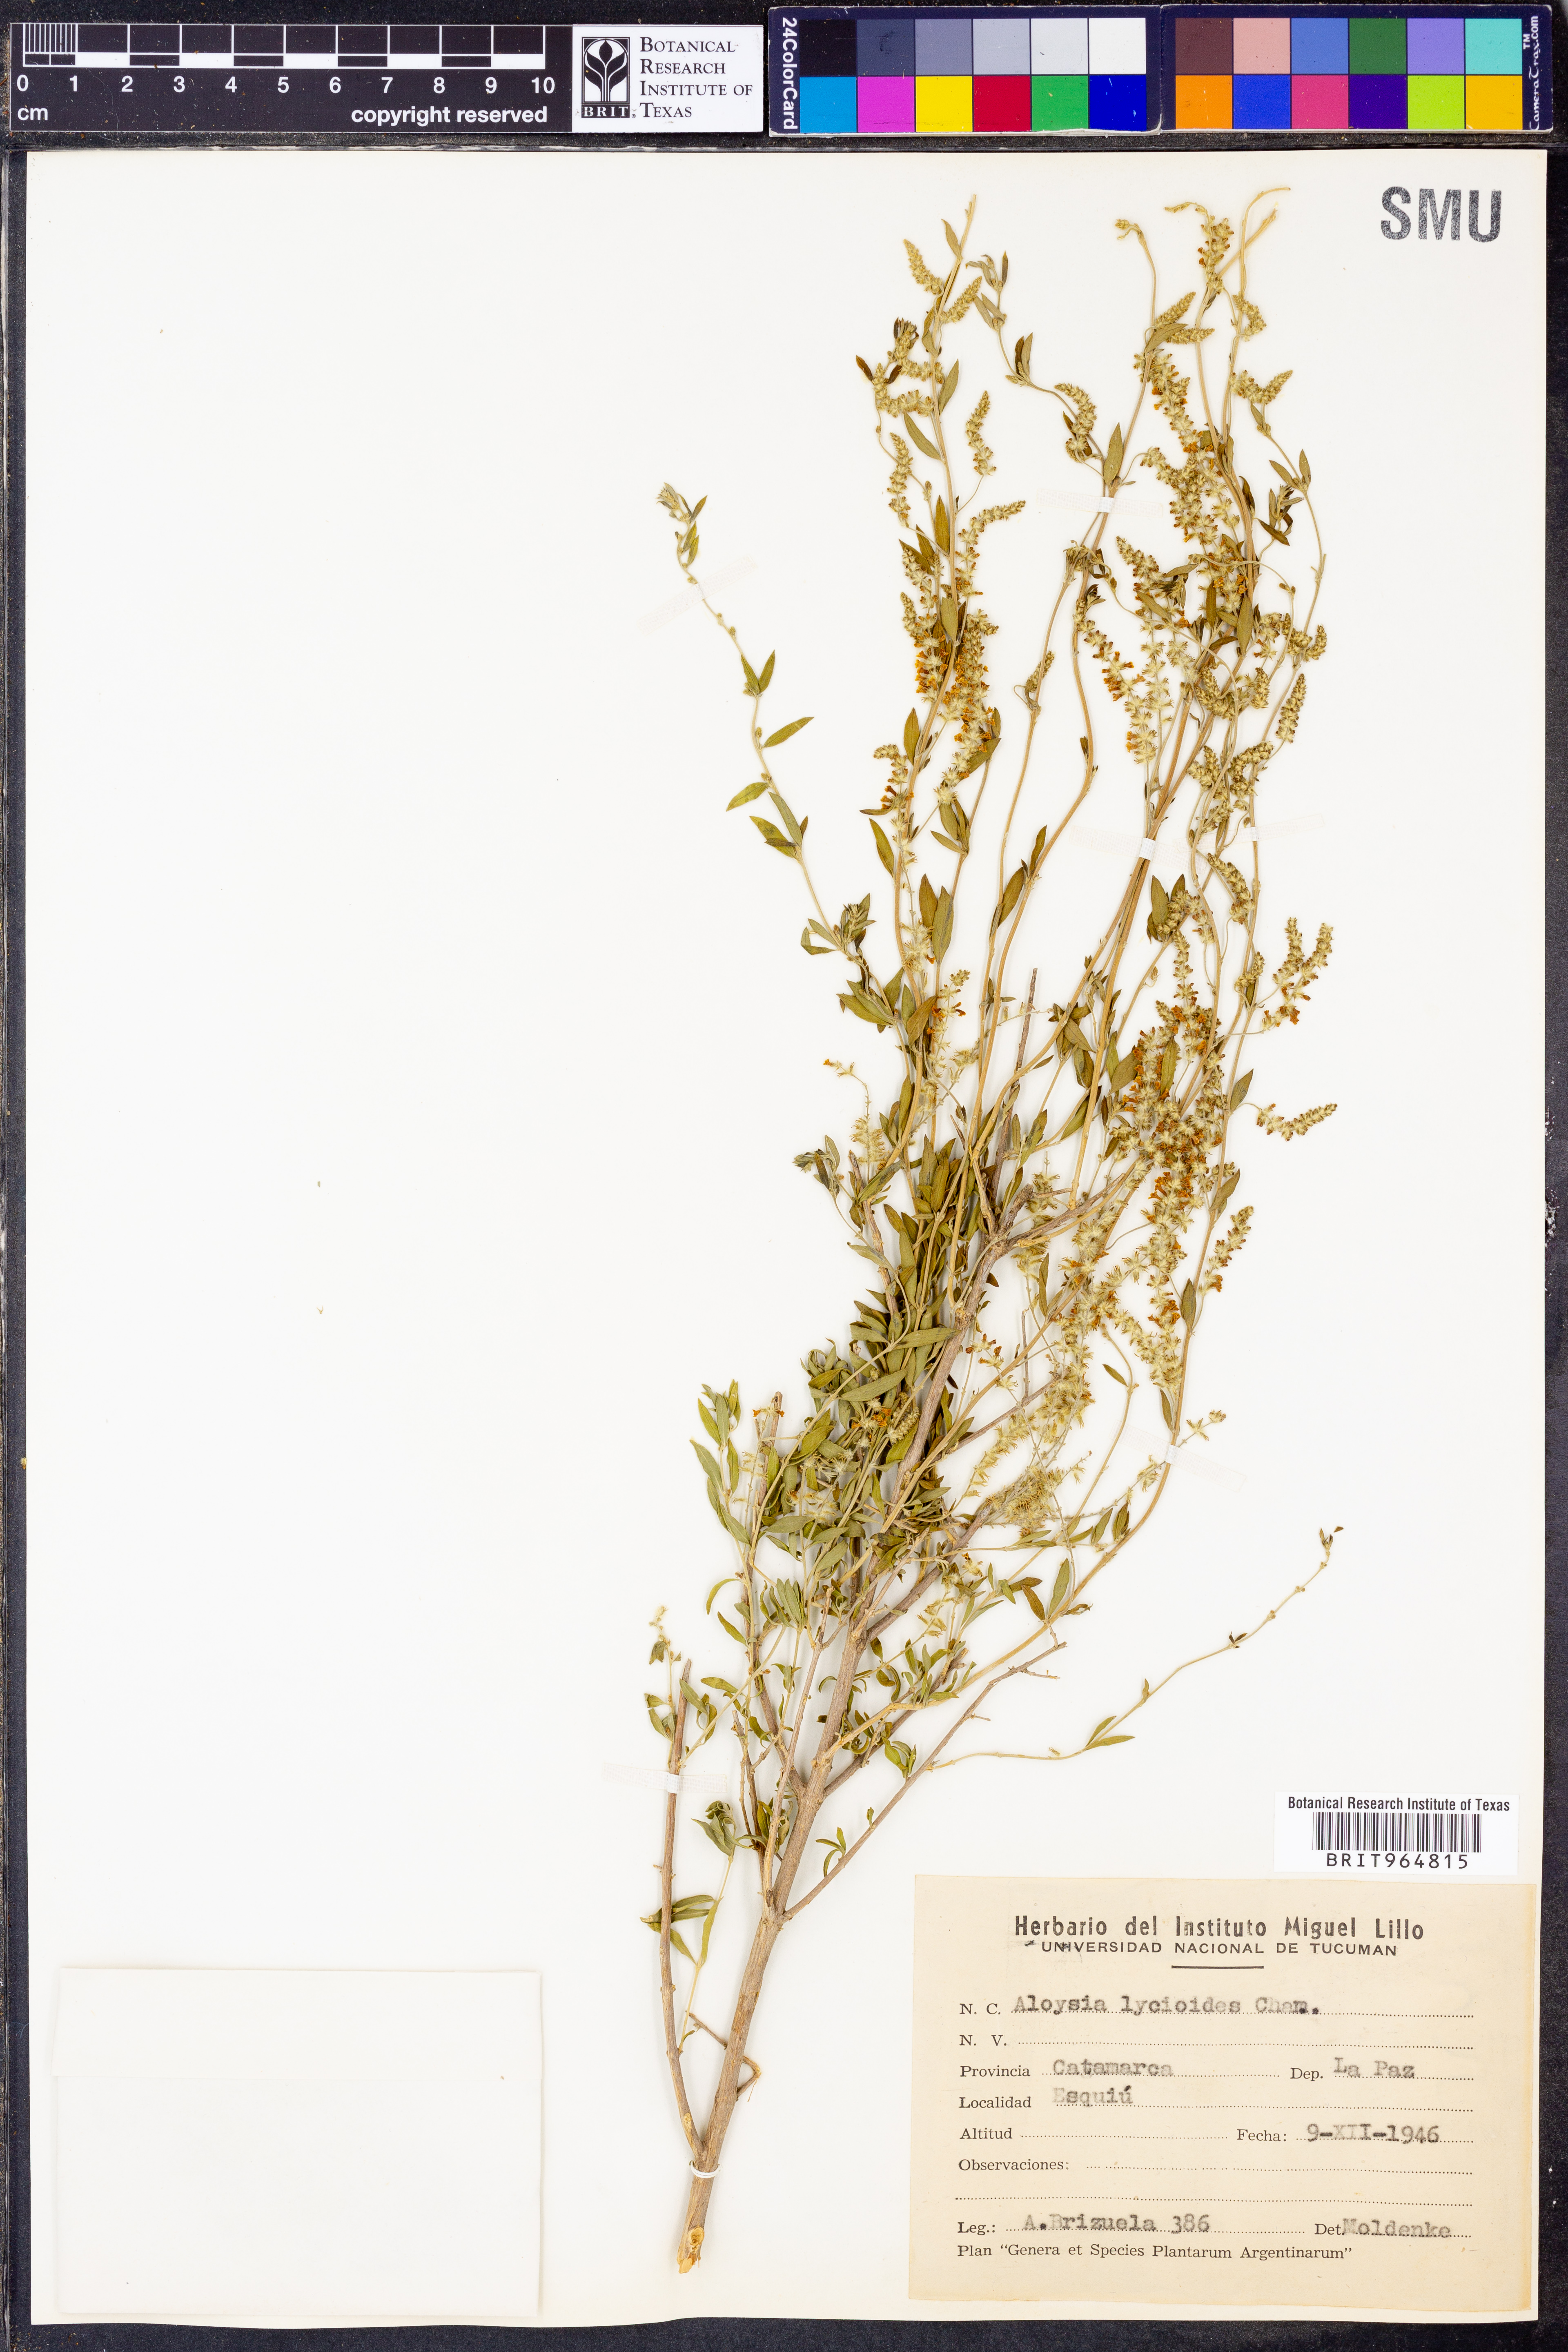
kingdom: Plantae
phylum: Tracheophyta
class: Magnoliopsida
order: Lamiales
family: Verbenaceae
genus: Aloysia
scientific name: Aloysia
